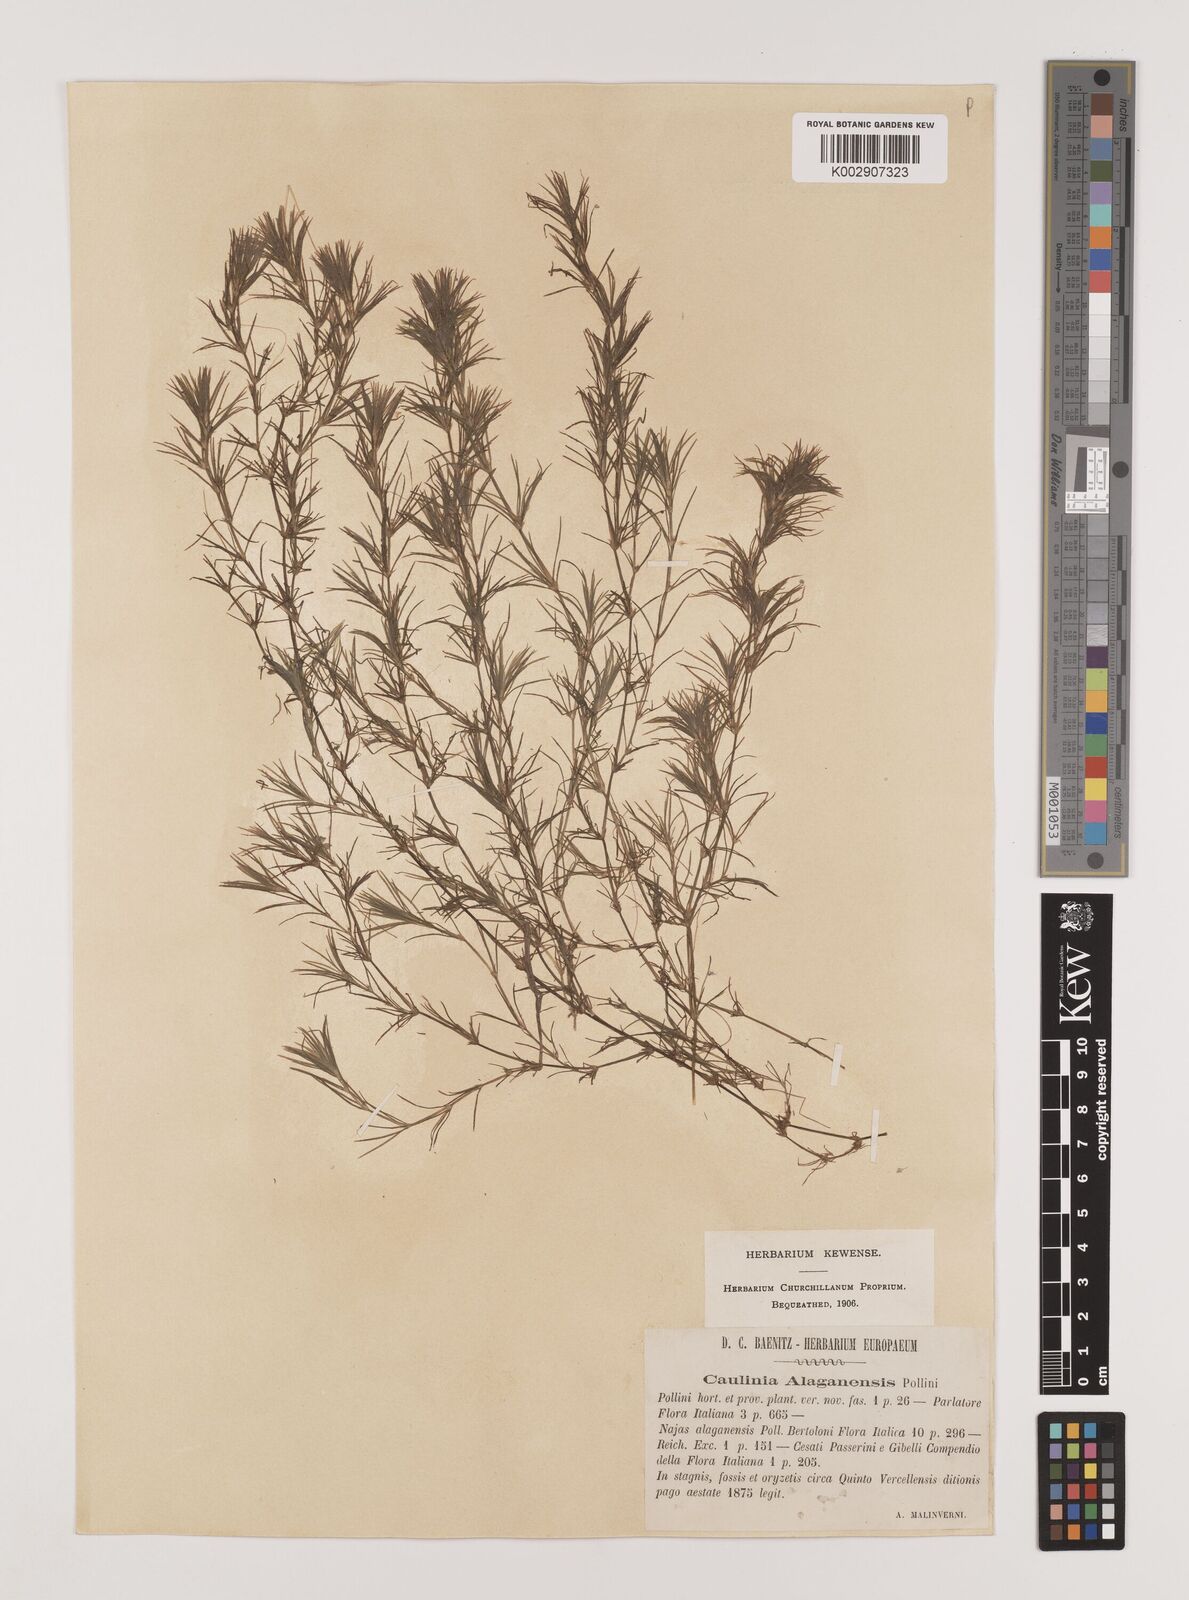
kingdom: Plantae
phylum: Tracheophyta
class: Liliopsida
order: Alismatales
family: Hydrocharitaceae
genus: Najas
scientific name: Najas graminea
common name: Ricefield waternymph
